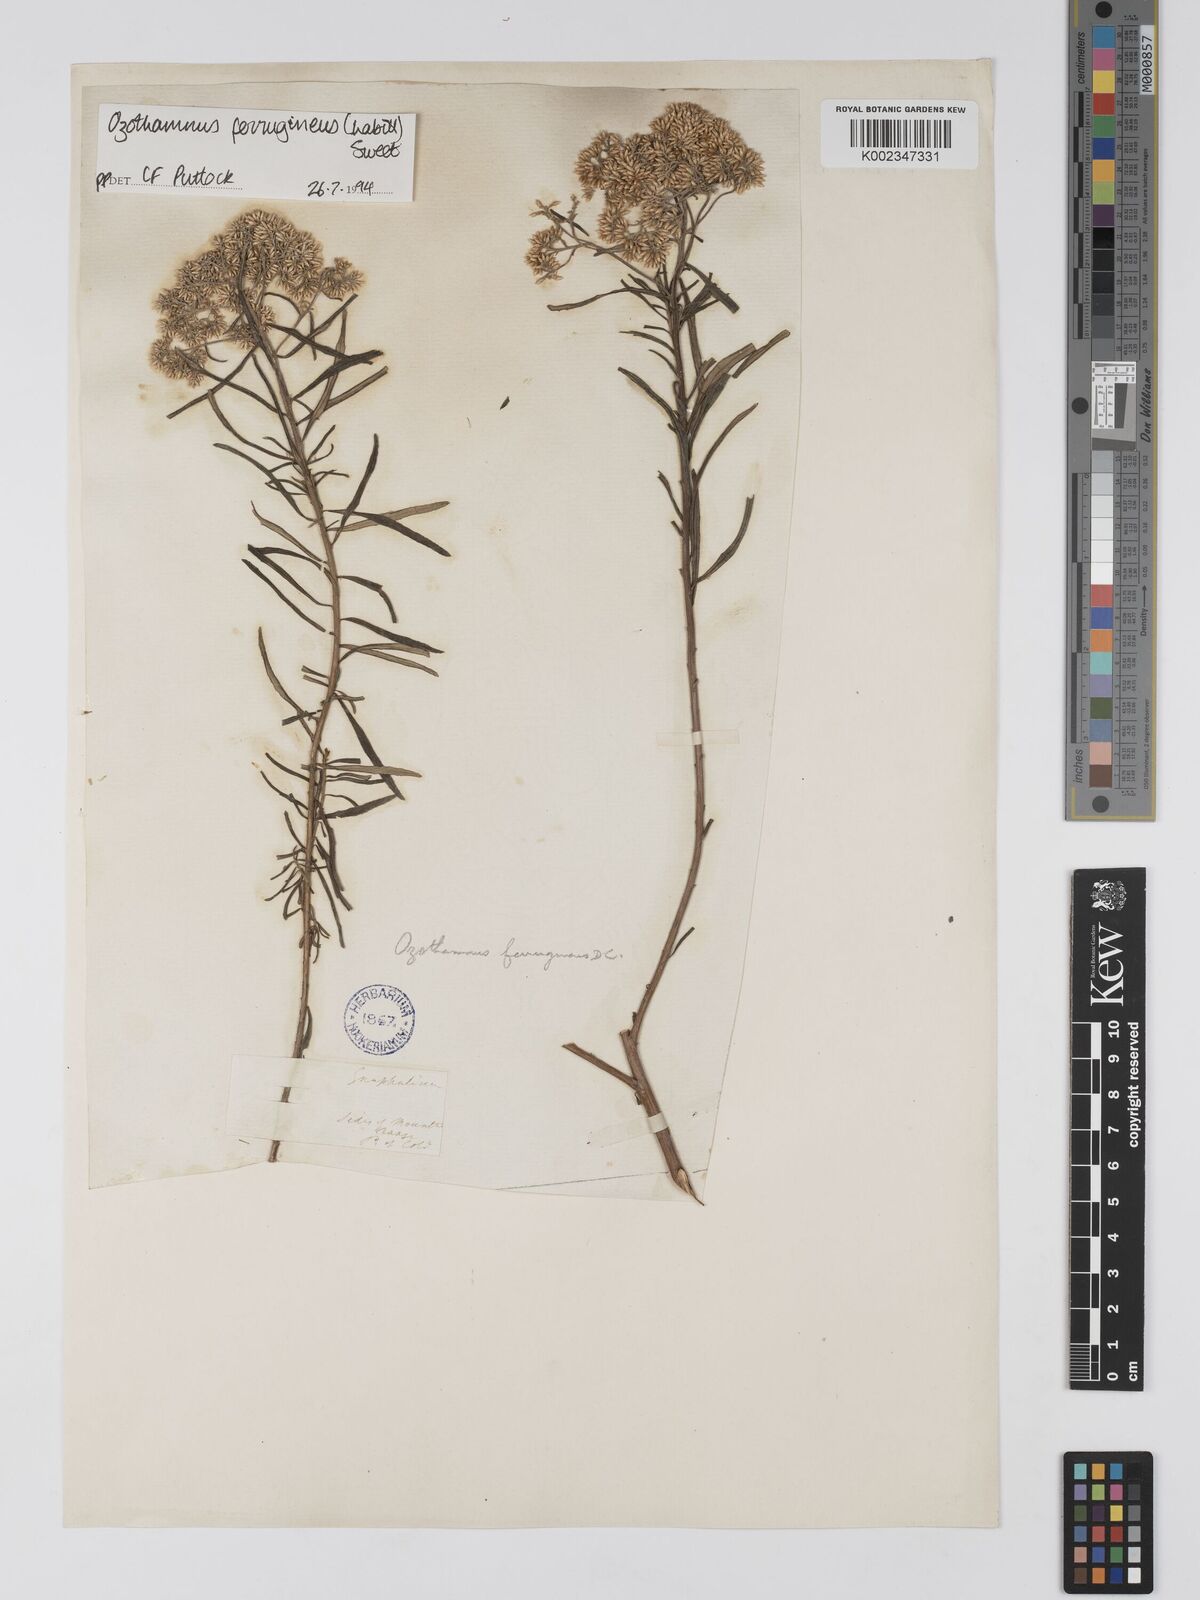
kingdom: Plantae
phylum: Tracheophyta
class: Magnoliopsida
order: Asterales
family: Asteraceae
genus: Ozothamnus
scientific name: Ozothamnus argophyllus
